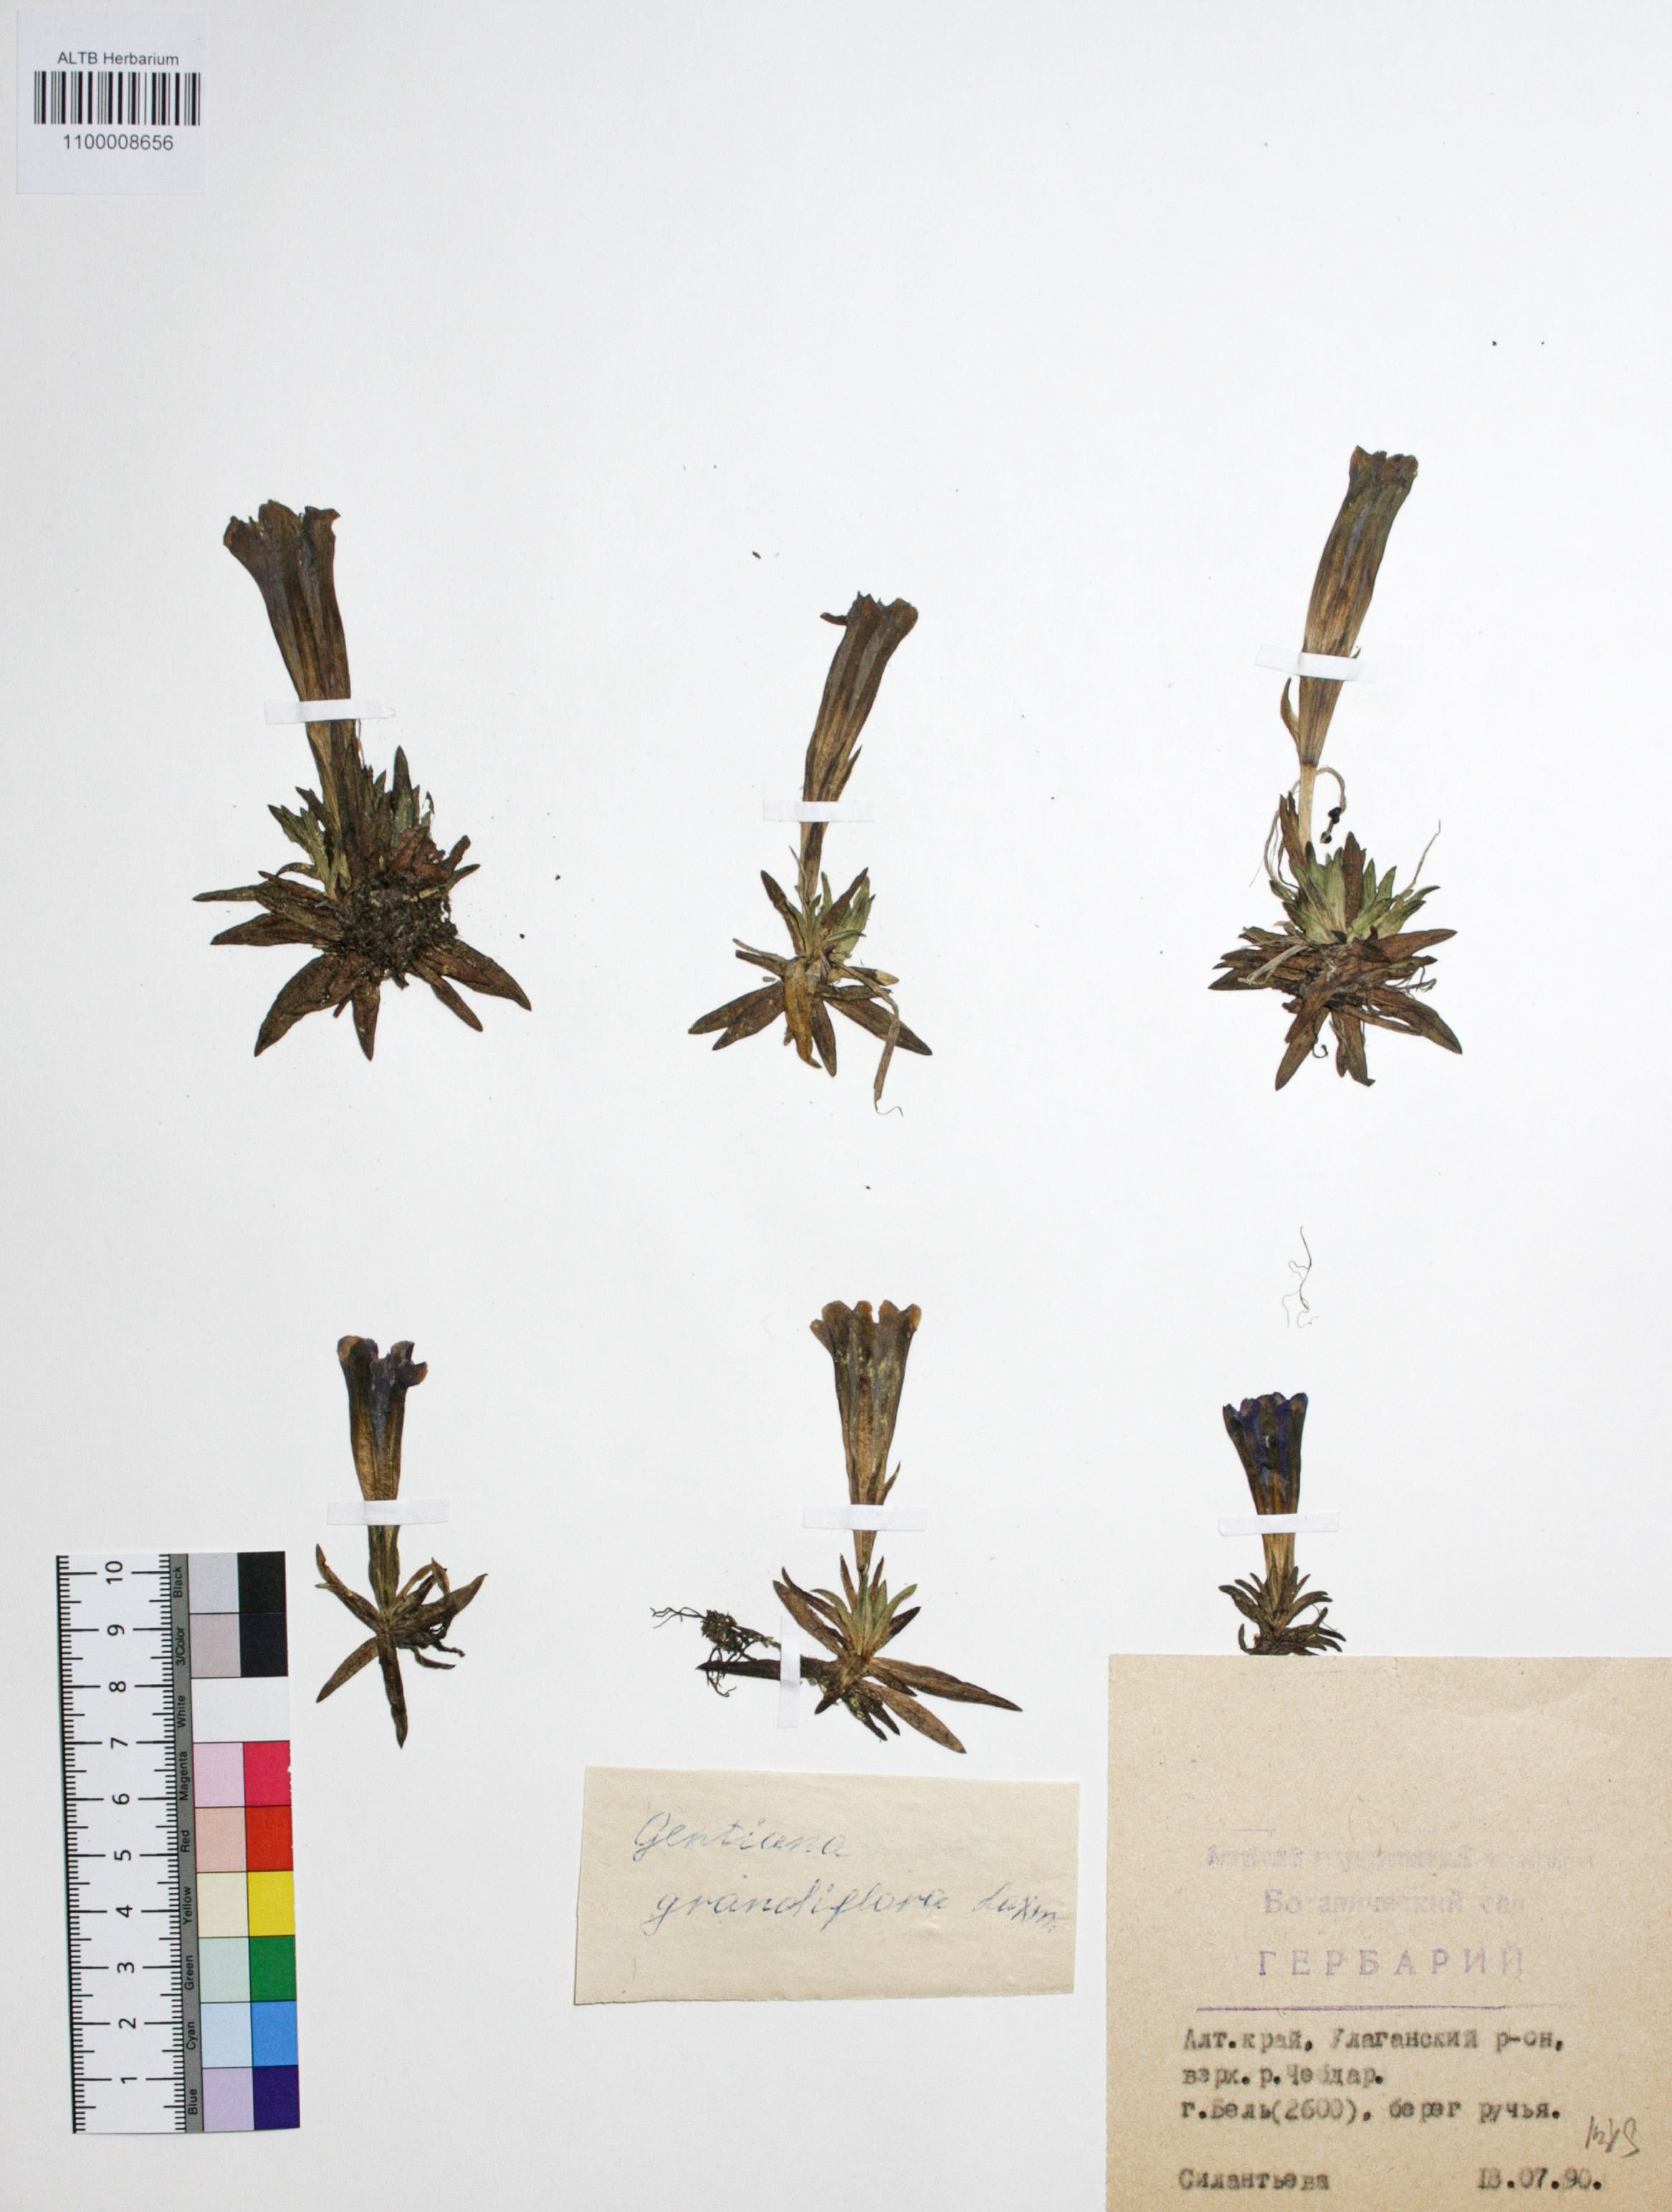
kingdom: Plantae
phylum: Tracheophyta
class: Magnoliopsida
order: Gentianales
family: Gentianaceae
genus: Gentiana
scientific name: Gentiana grandiflora
